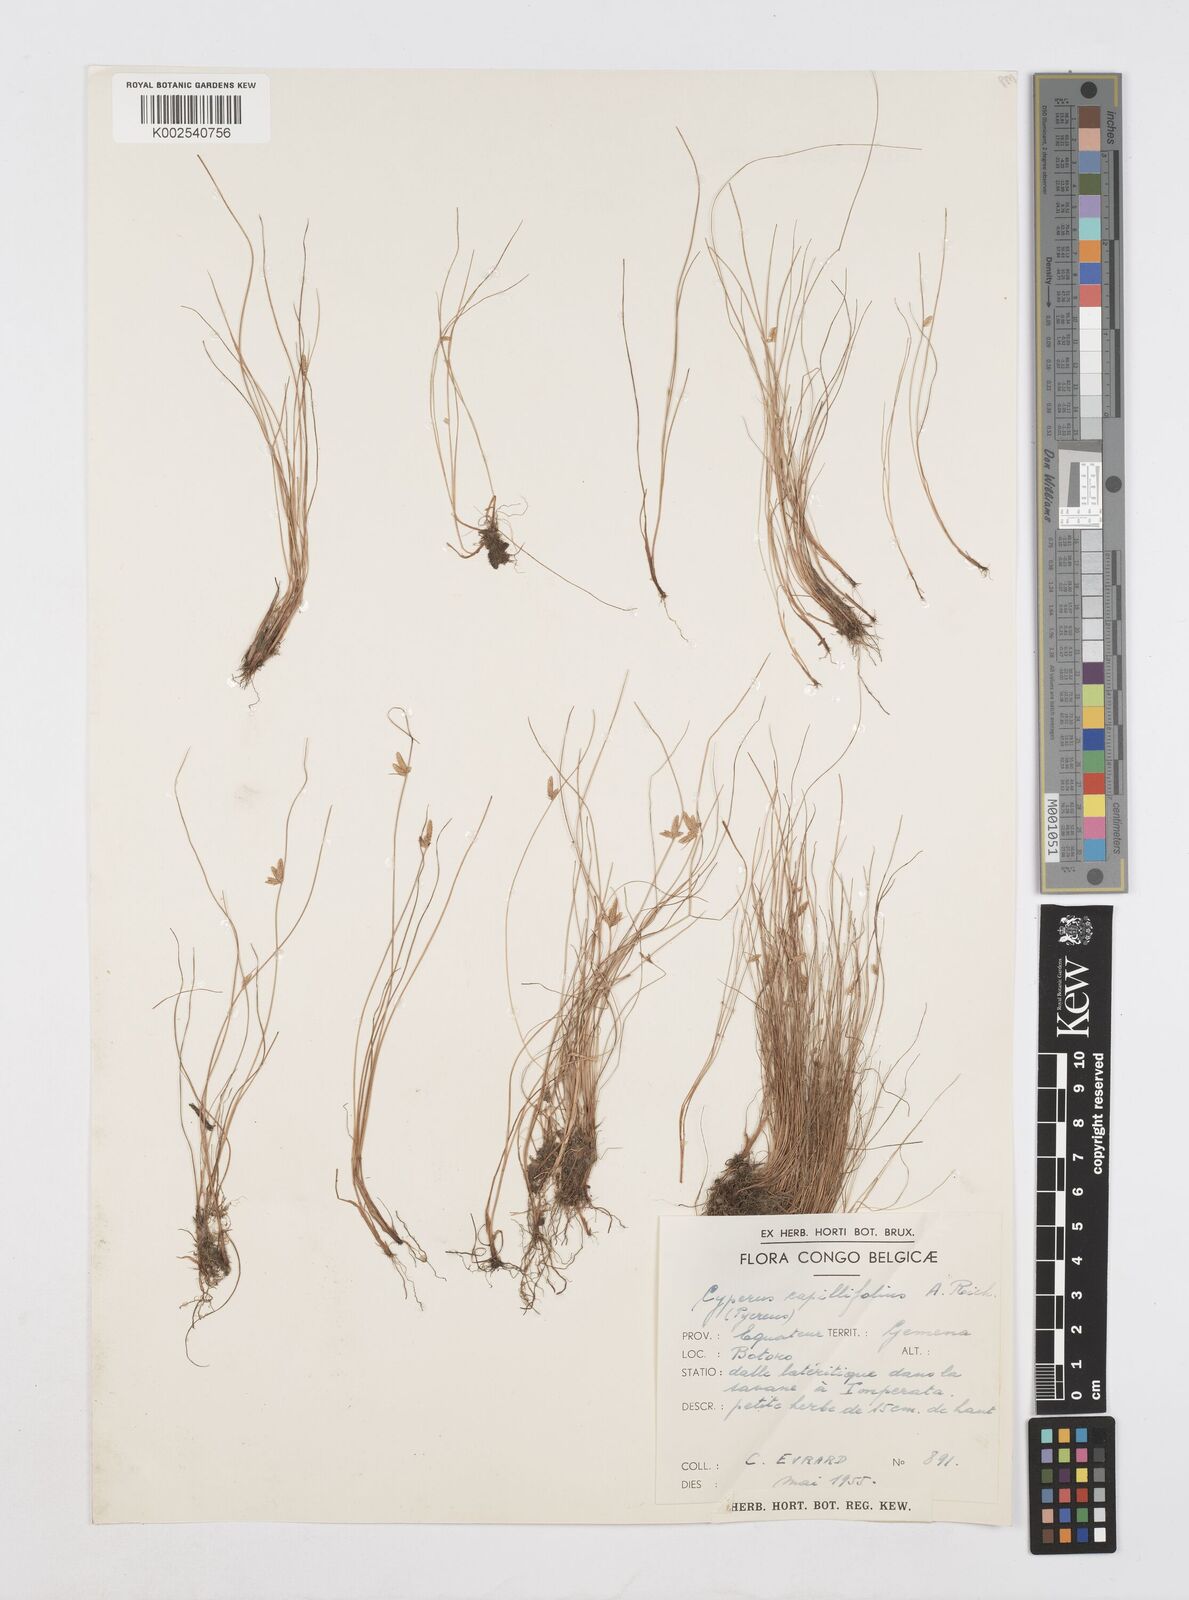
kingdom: Plantae
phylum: Tracheophyta
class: Liliopsida
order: Poales
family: Cyperaceae
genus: Cyperus
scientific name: Cyperus capillifolius
